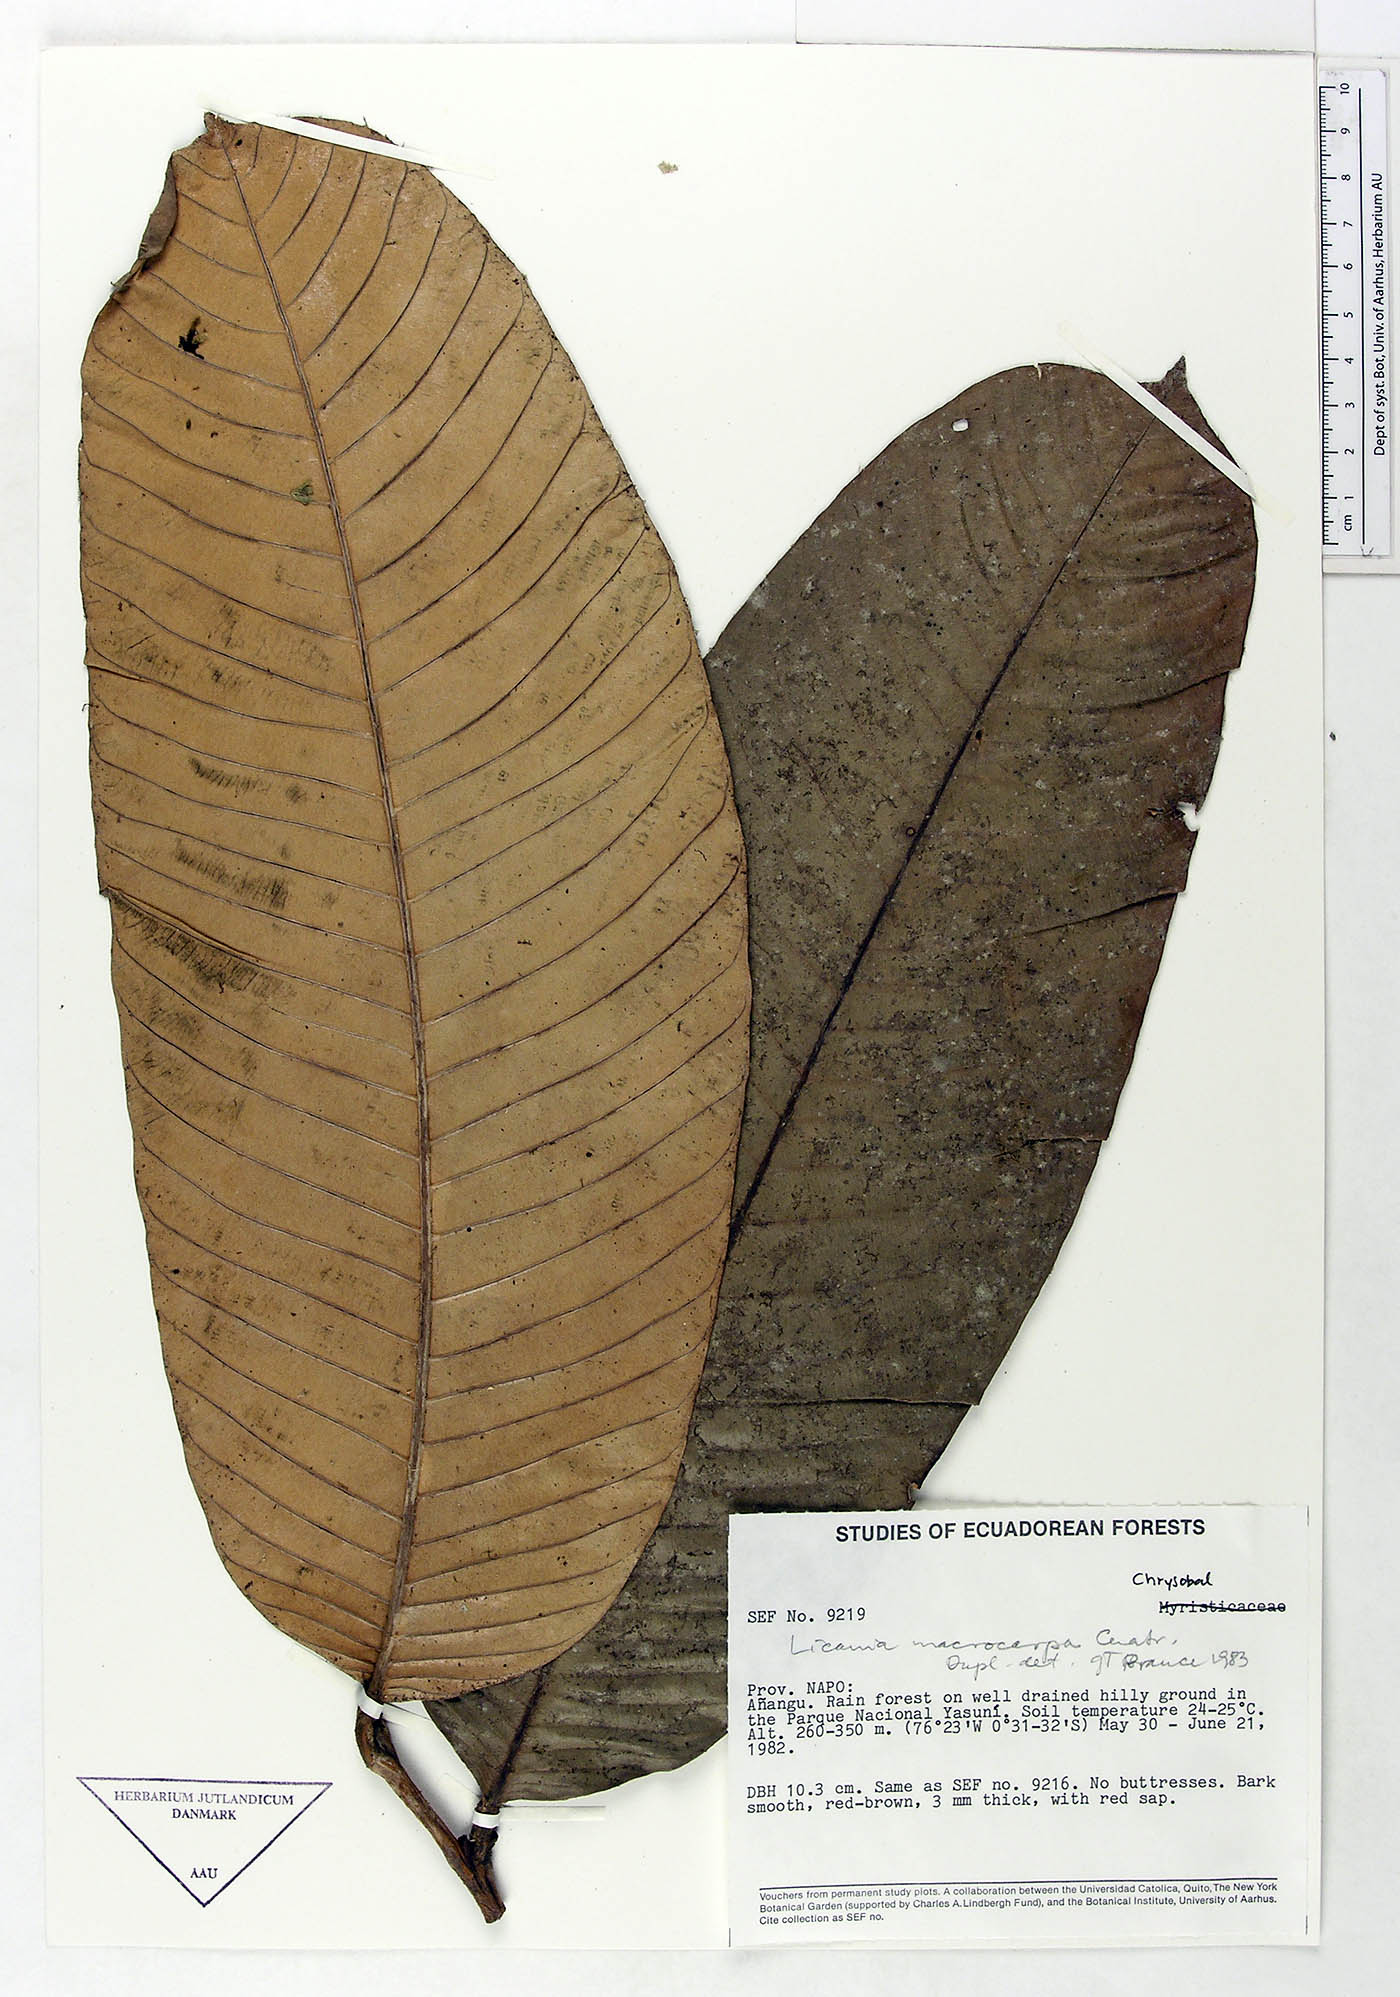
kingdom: Plantae
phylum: Tracheophyta
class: Magnoliopsida
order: Malpighiales
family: Chrysobalanaceae
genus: Moquilea
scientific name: Moquilea magnifructa
